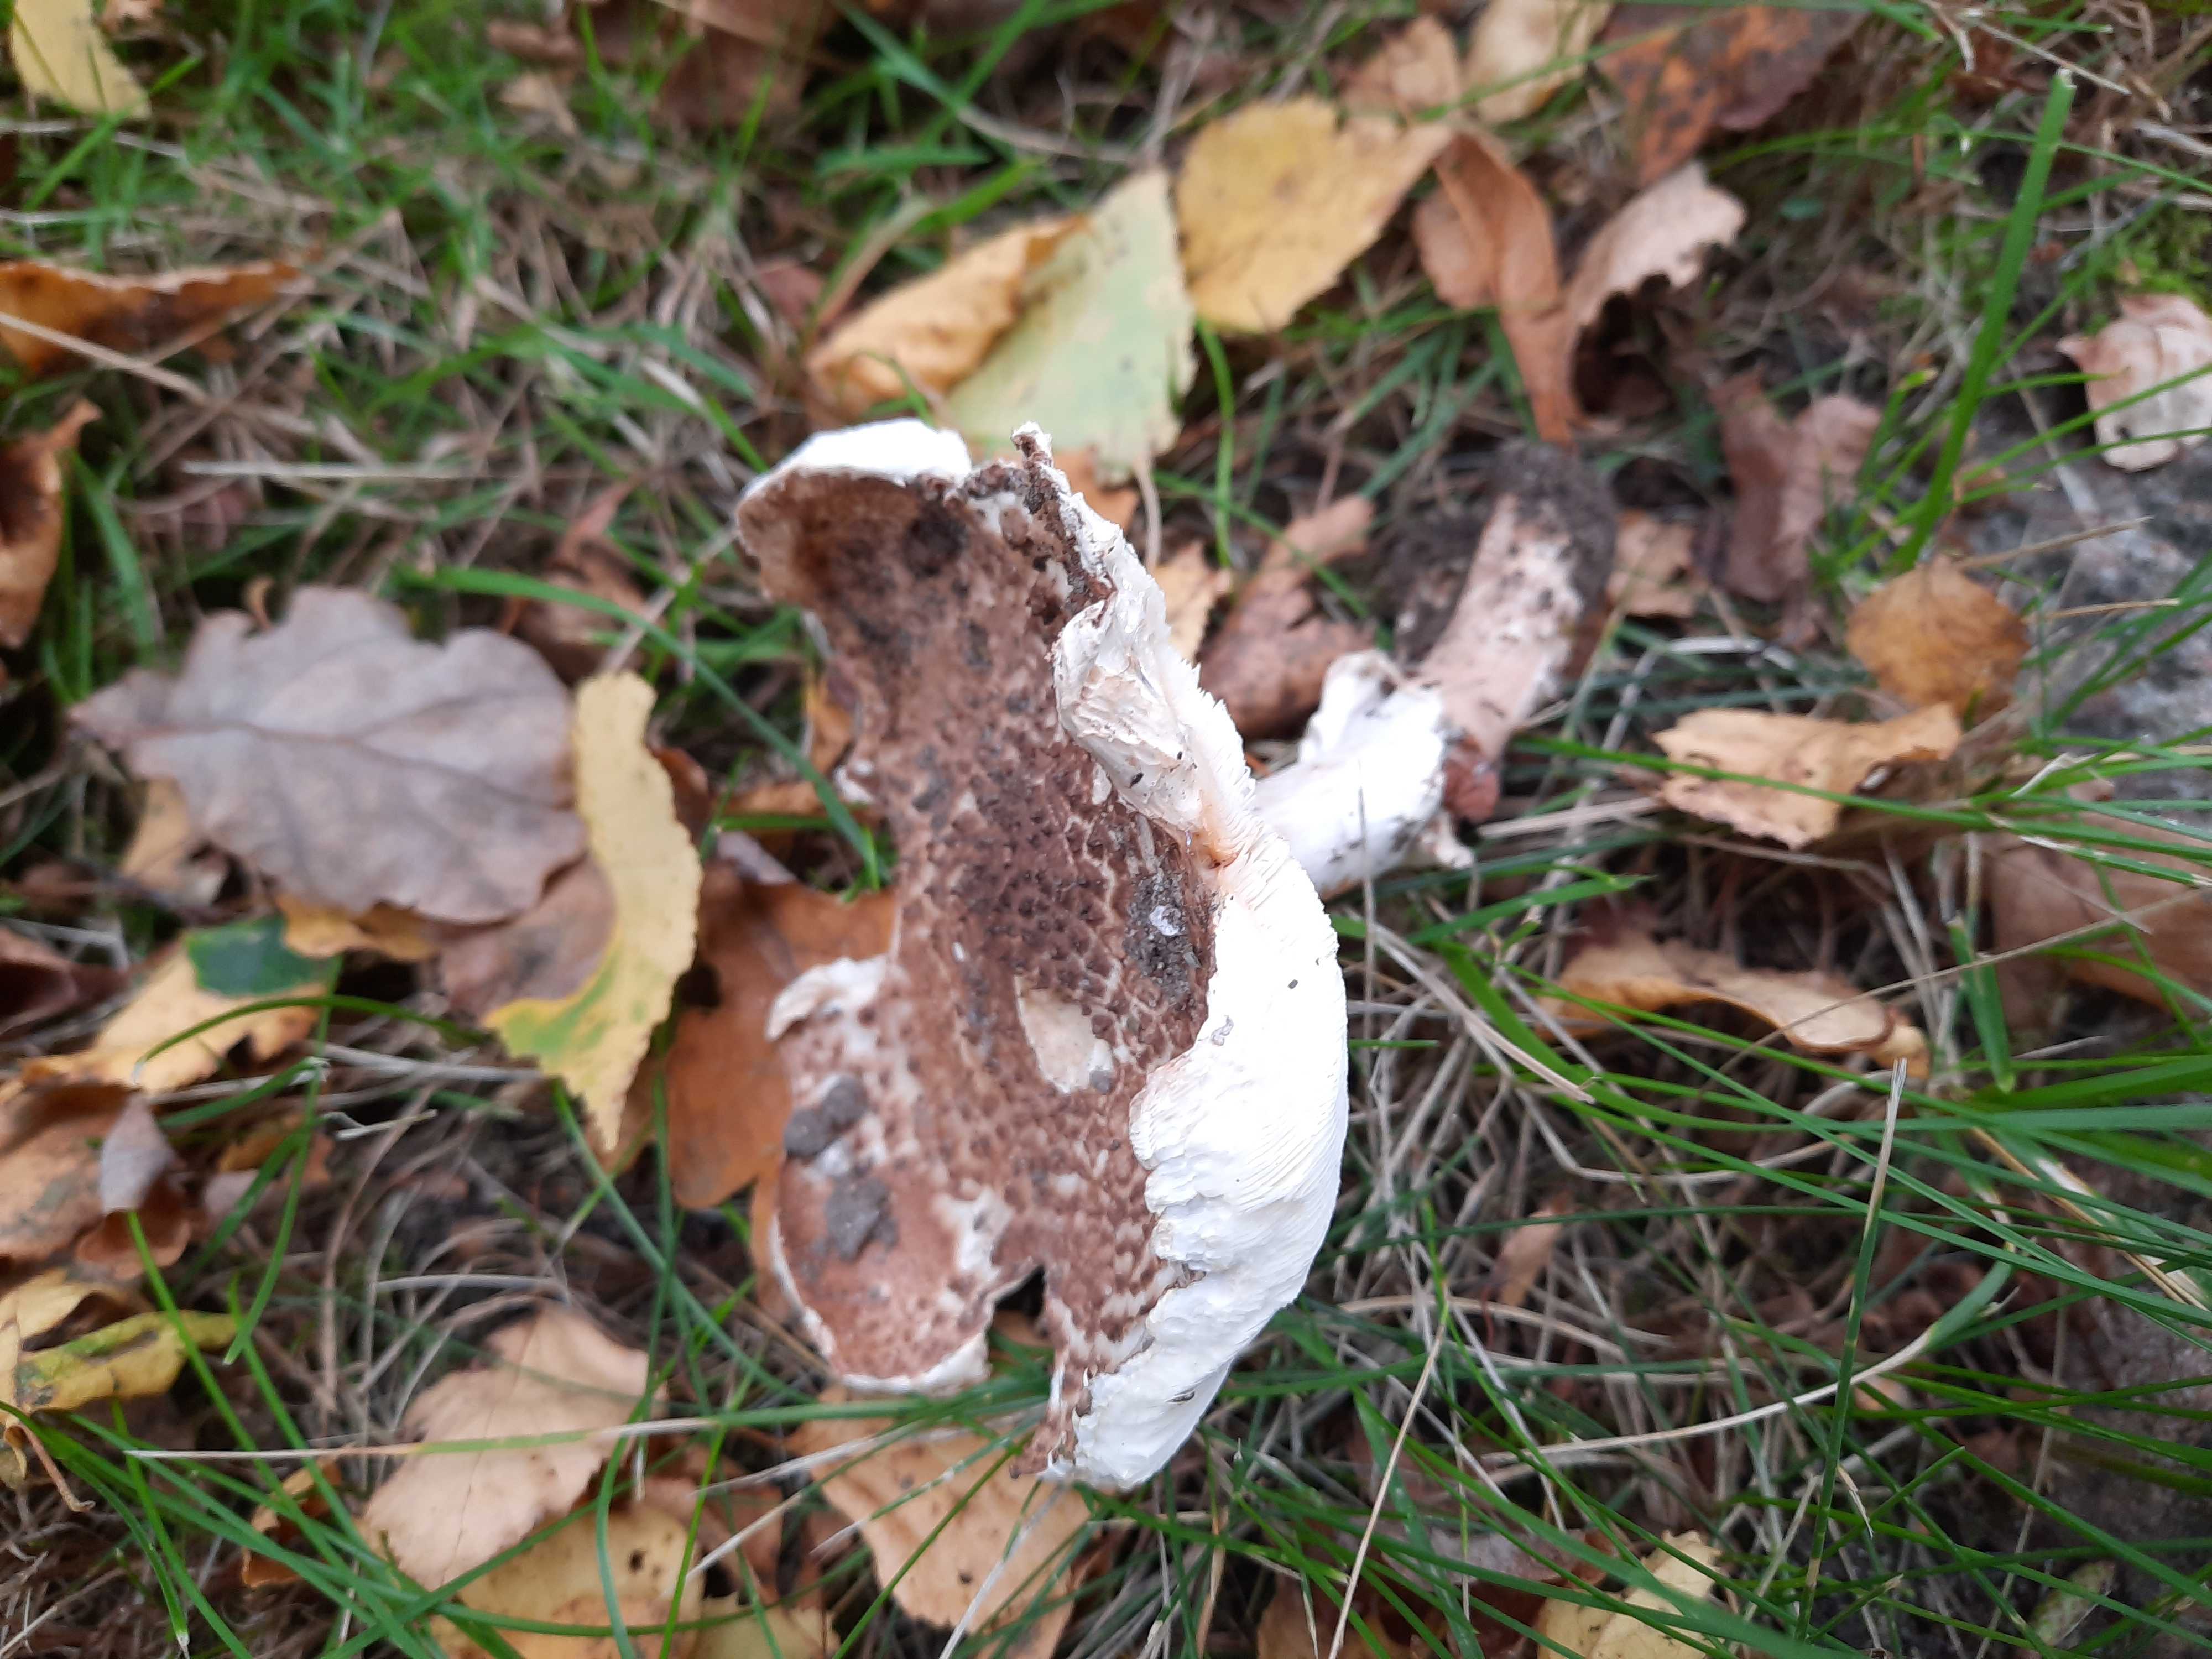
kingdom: Fungi
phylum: Basidiomycota
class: Agaricomycetes
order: Agaricales
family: Agaricaceae
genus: Echinoderma
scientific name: Echinoderma asperum
